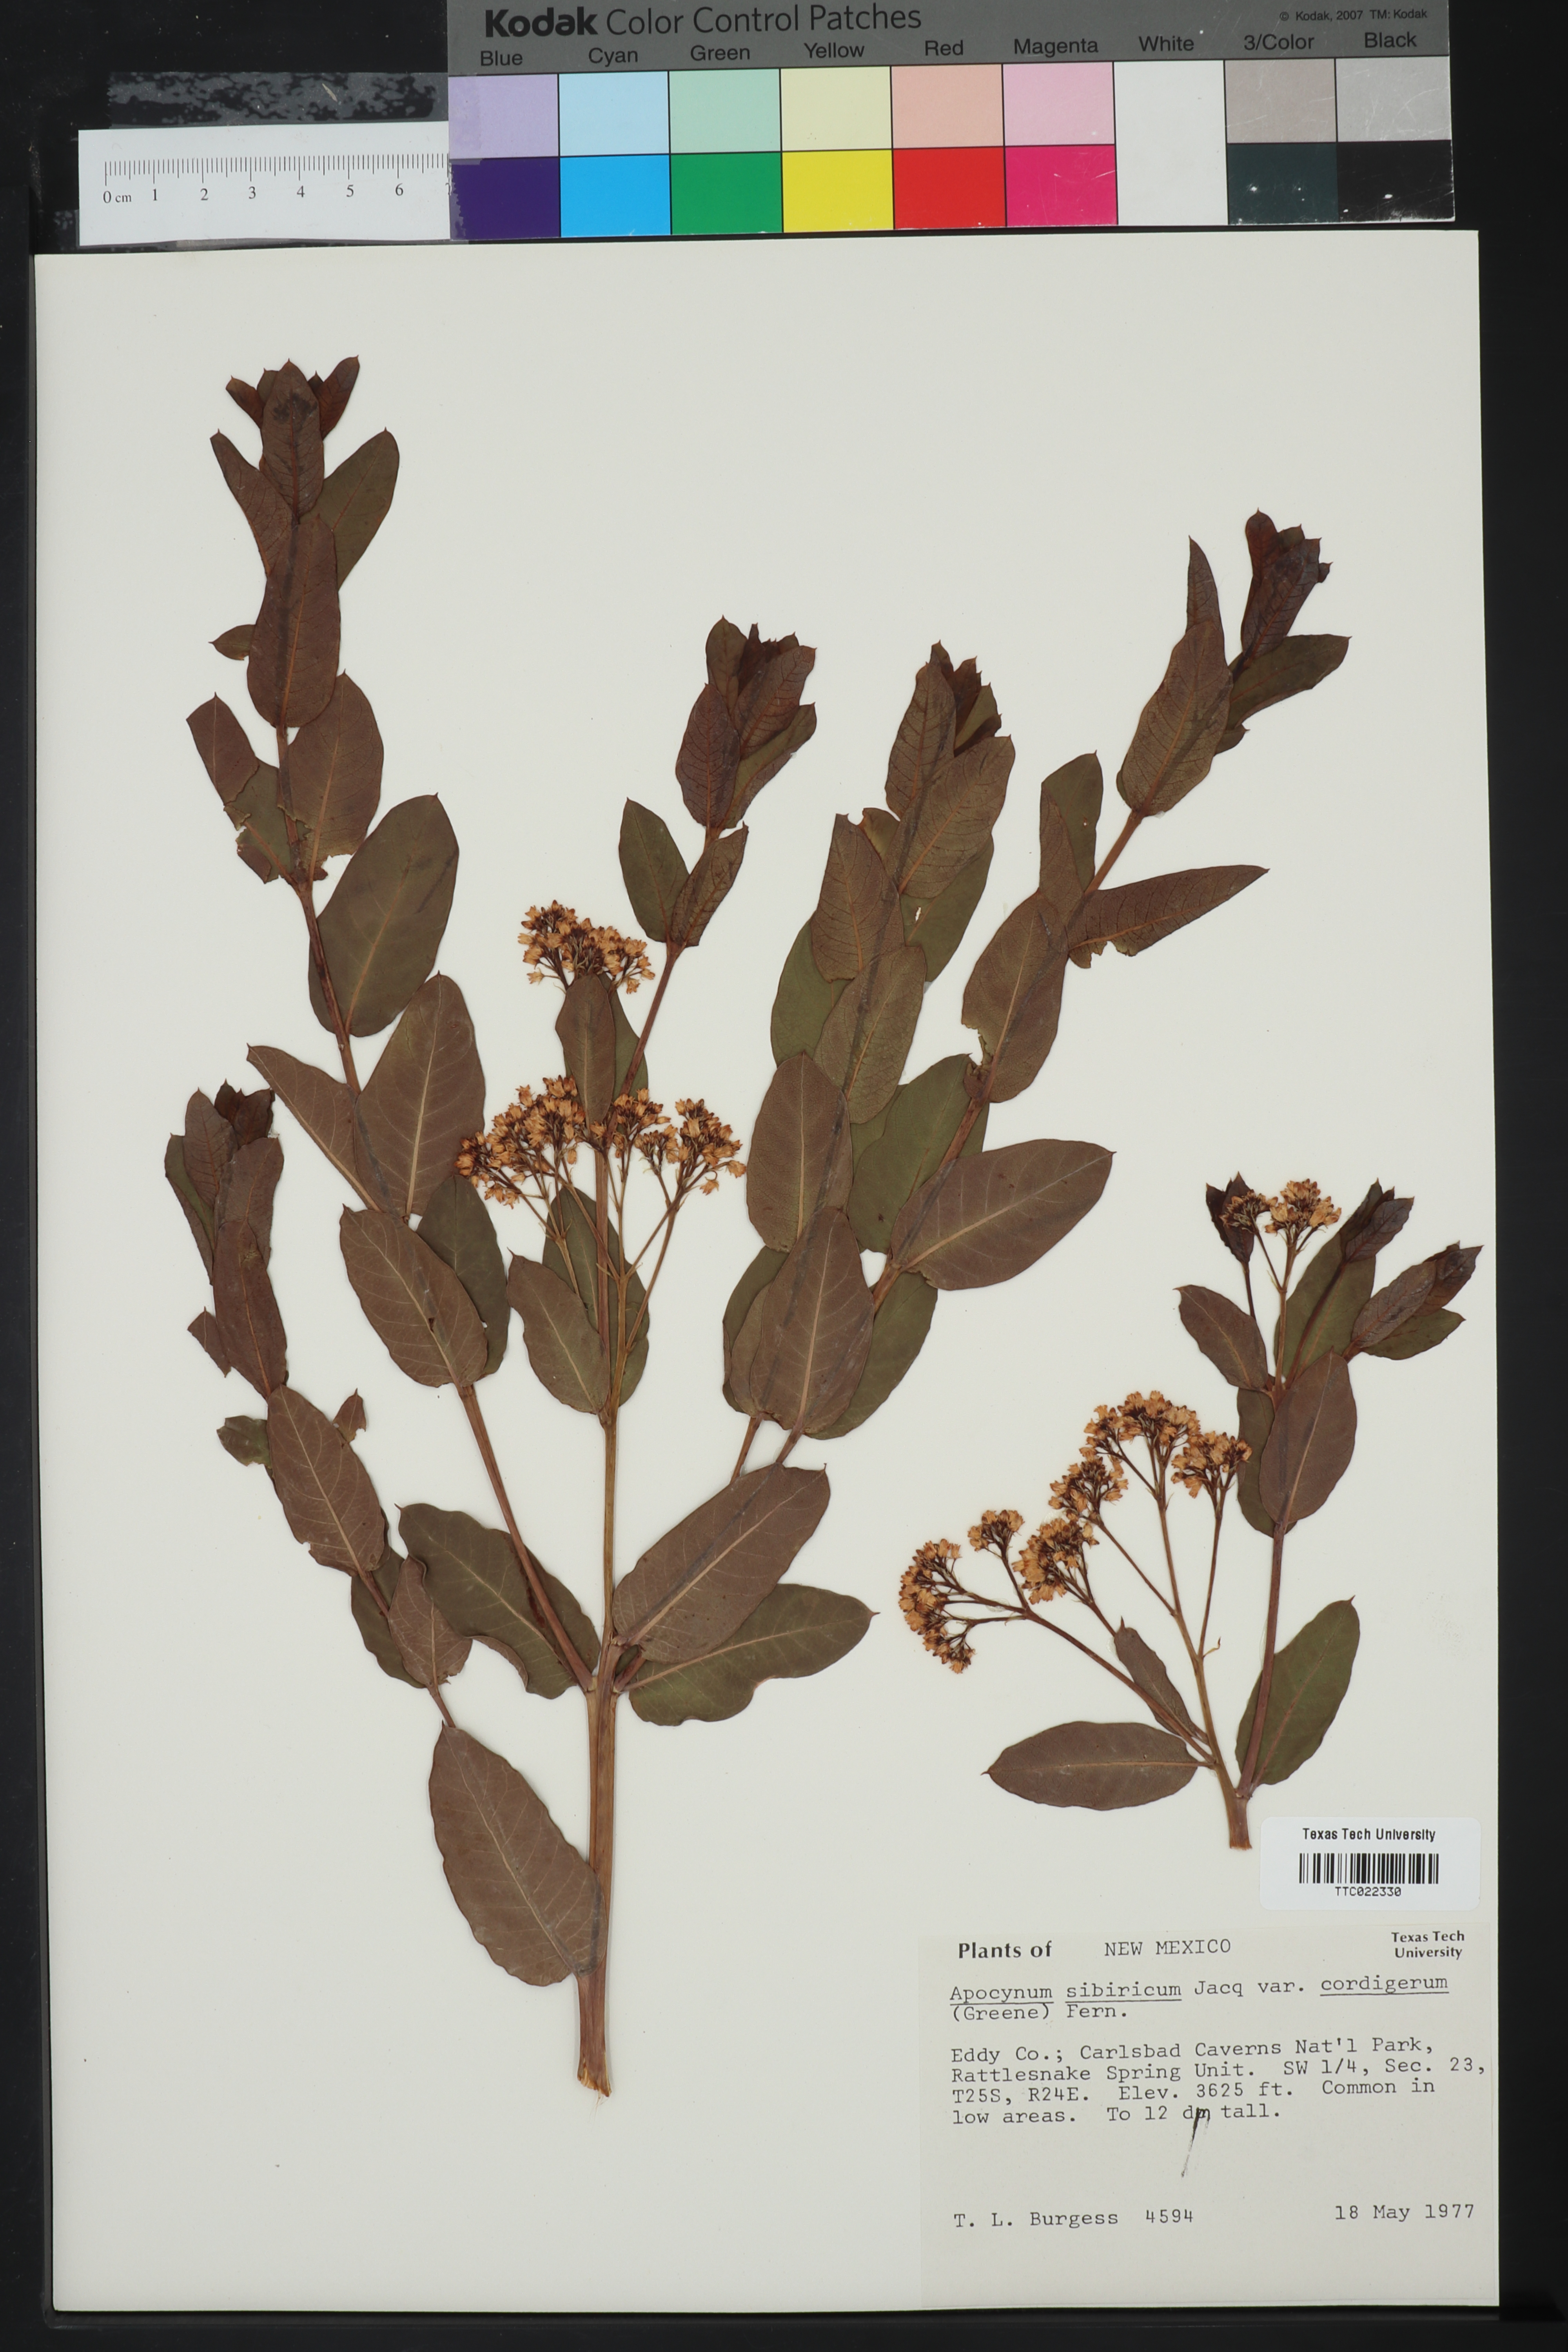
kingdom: Plantae
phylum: Tracheophyta
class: Magnoliopsida
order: Gentianales
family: Apocynaceae
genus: Apocynum
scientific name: Apocynum cannabinum
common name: Hemp dogbane
